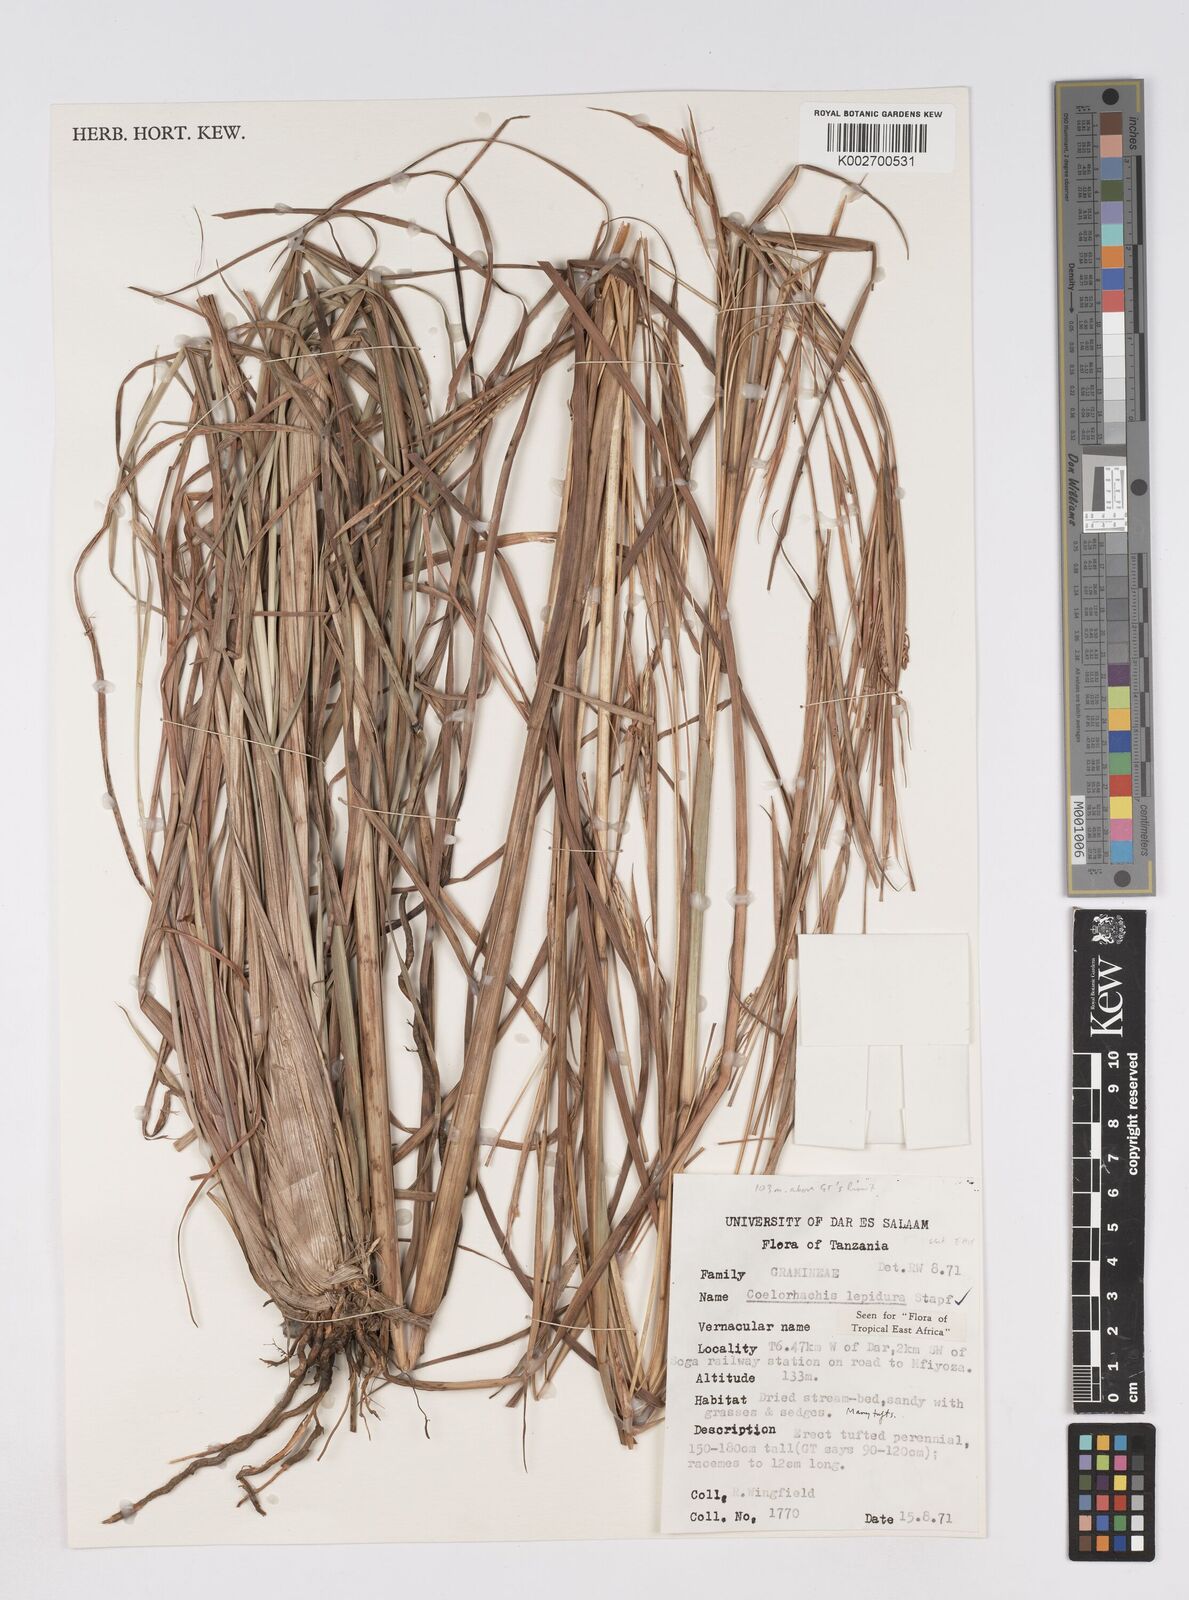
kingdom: Plantae
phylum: Tracheophyta
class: Liliopsida
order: Poales
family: Poaceae
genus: Rottboellia
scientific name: Rottboellia lepidura
